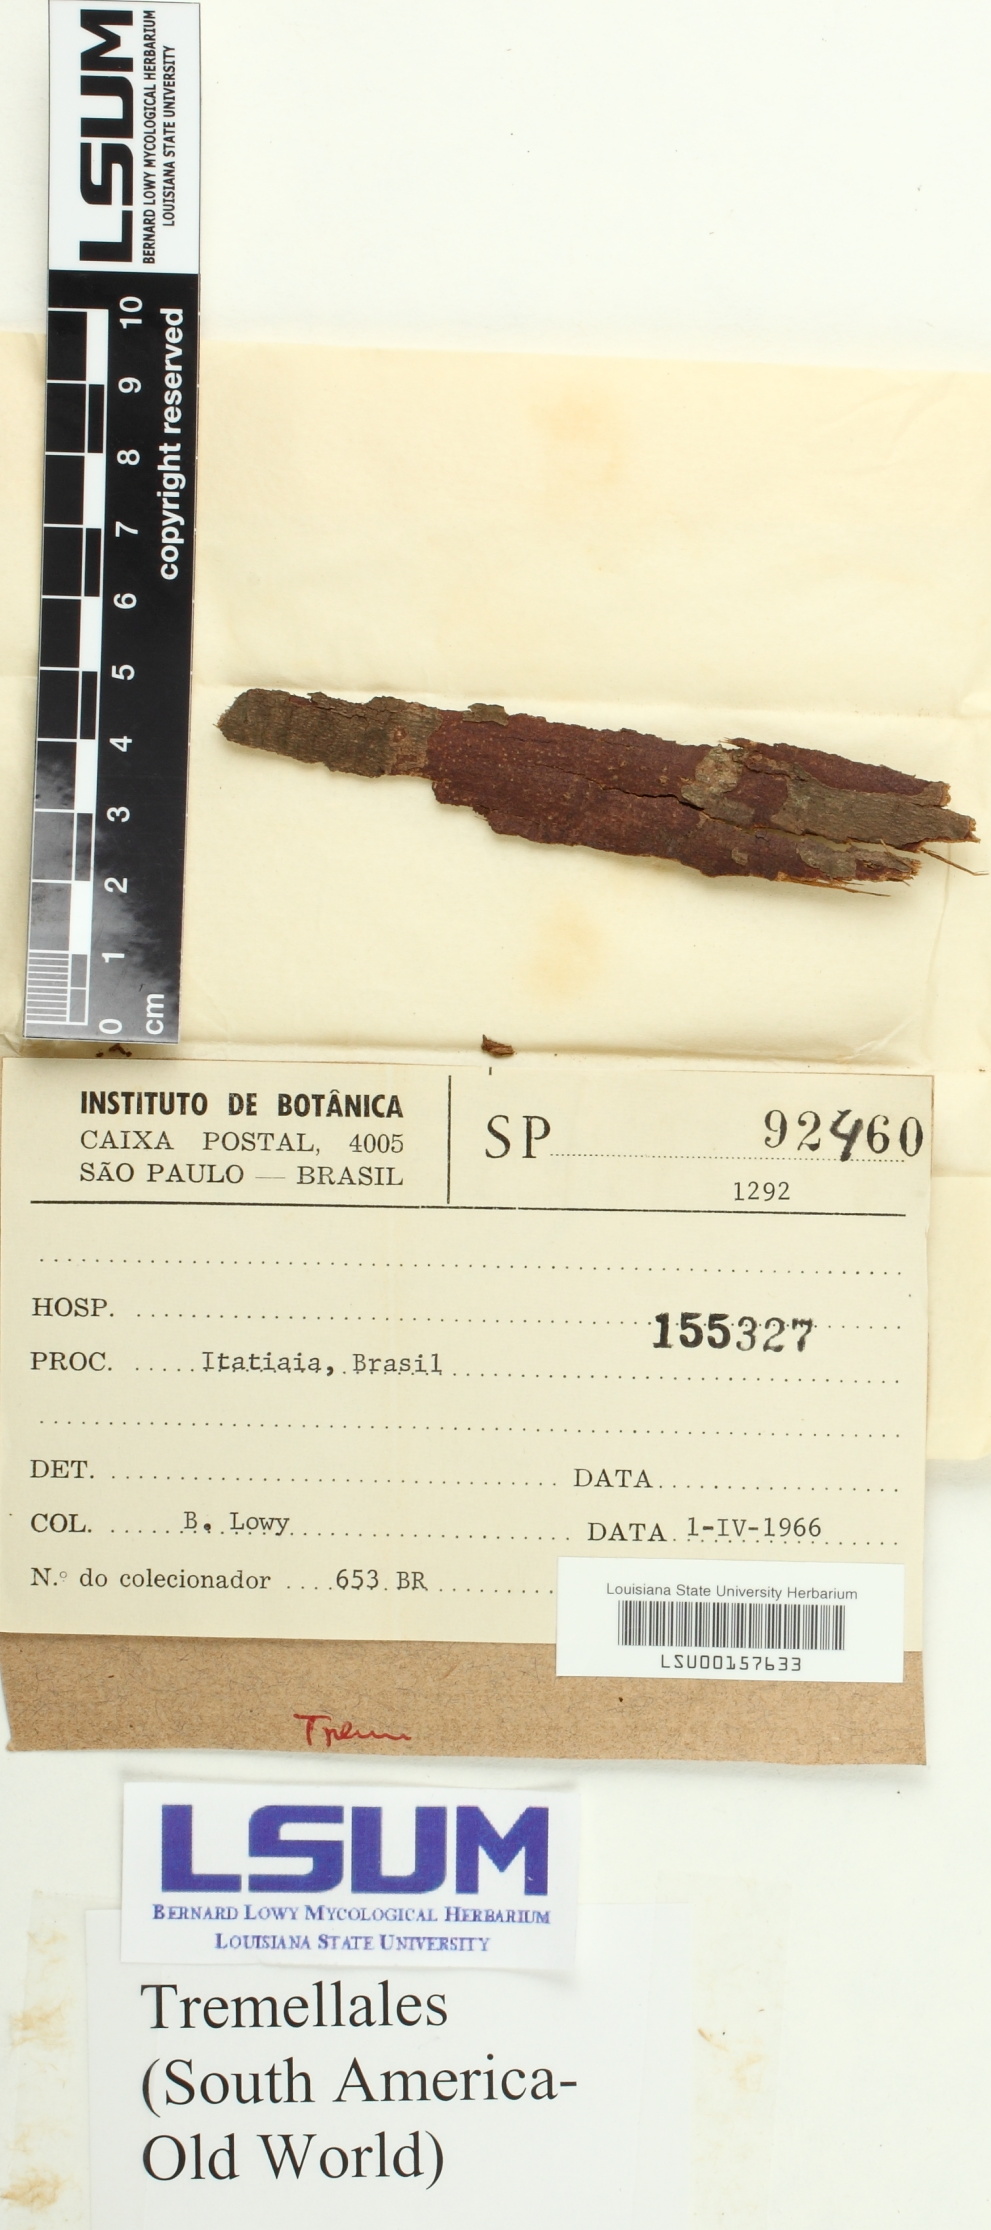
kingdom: Fungi
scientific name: Fungi
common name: Fungi
